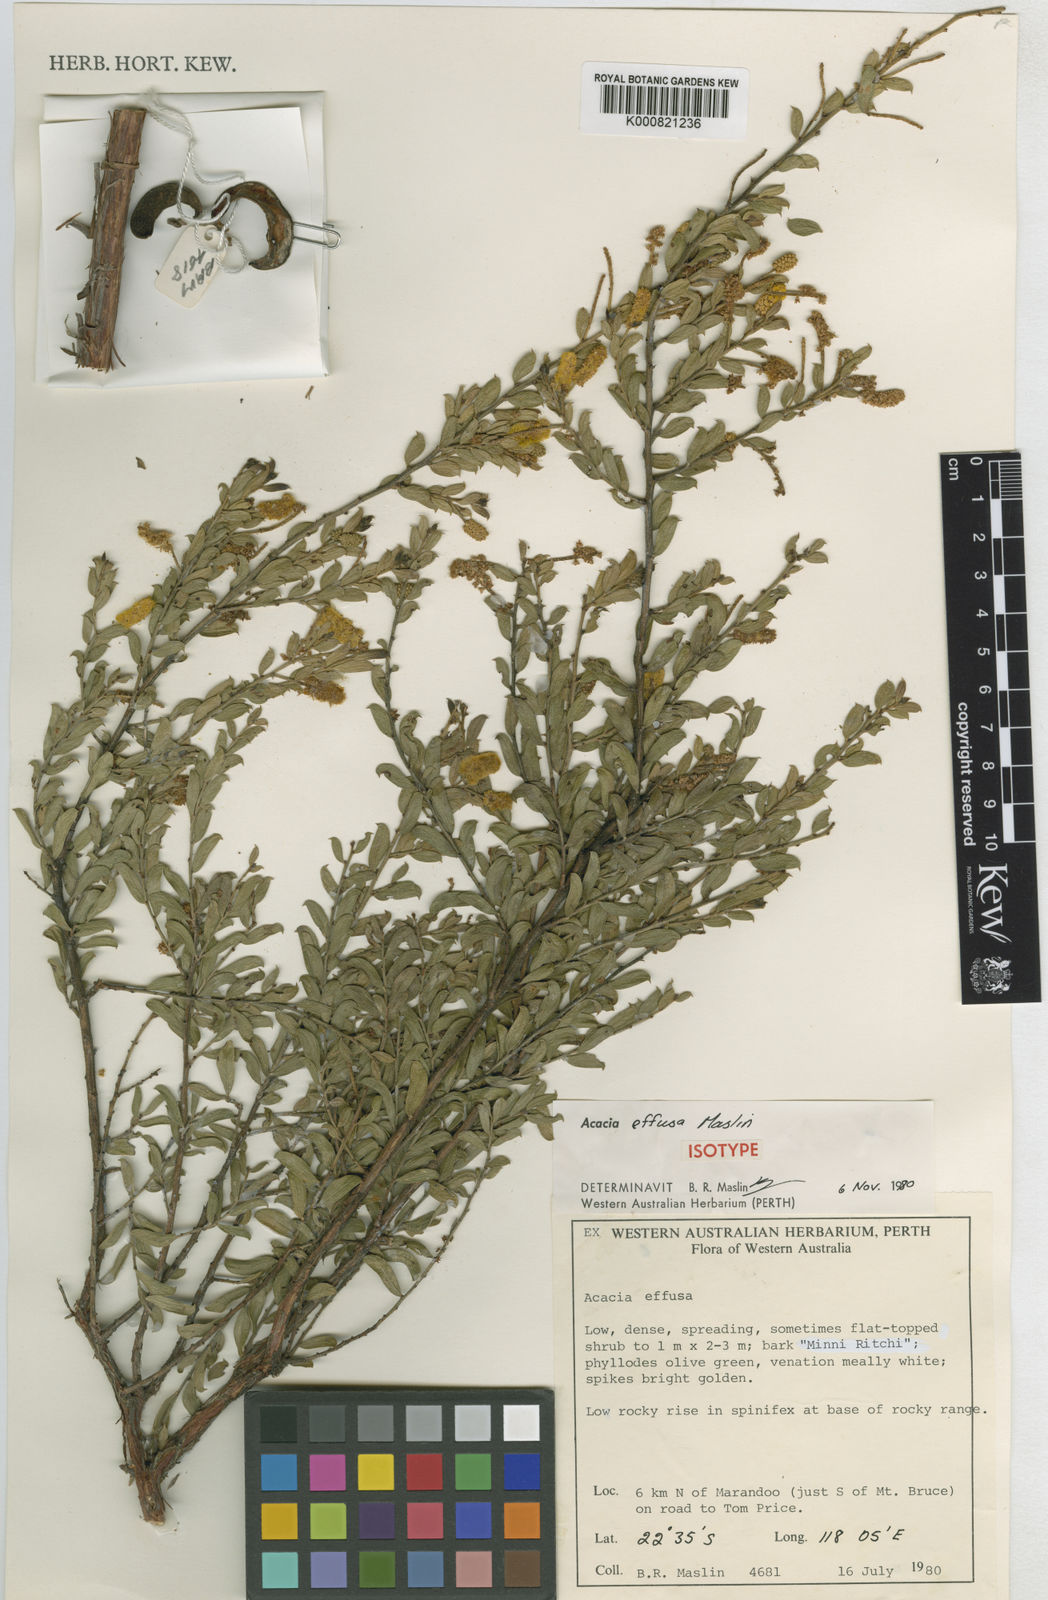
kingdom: Plantae
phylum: Tracheophyta
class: Magnoliopsida
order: Fabales
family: Fabaceae
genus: Acacia
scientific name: Acacia effusa
